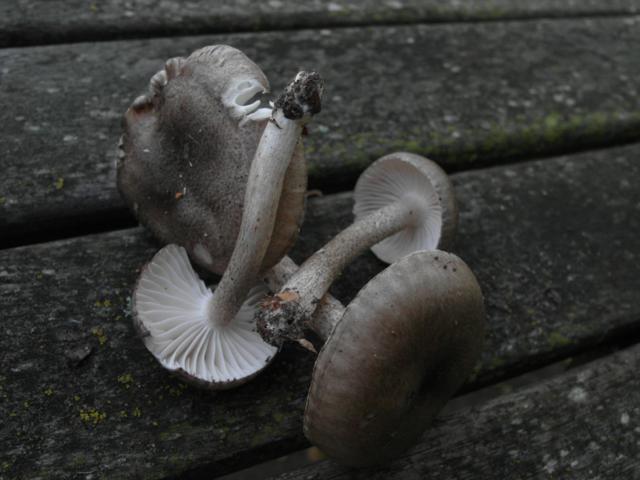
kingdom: Fungi
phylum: Basidiomycota
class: Agaricomycetes
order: Agaricales
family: Hygrophoraceae
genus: Hygrophorus
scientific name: Hygrophorus pustulatus
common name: mørkprikket sneglehat
